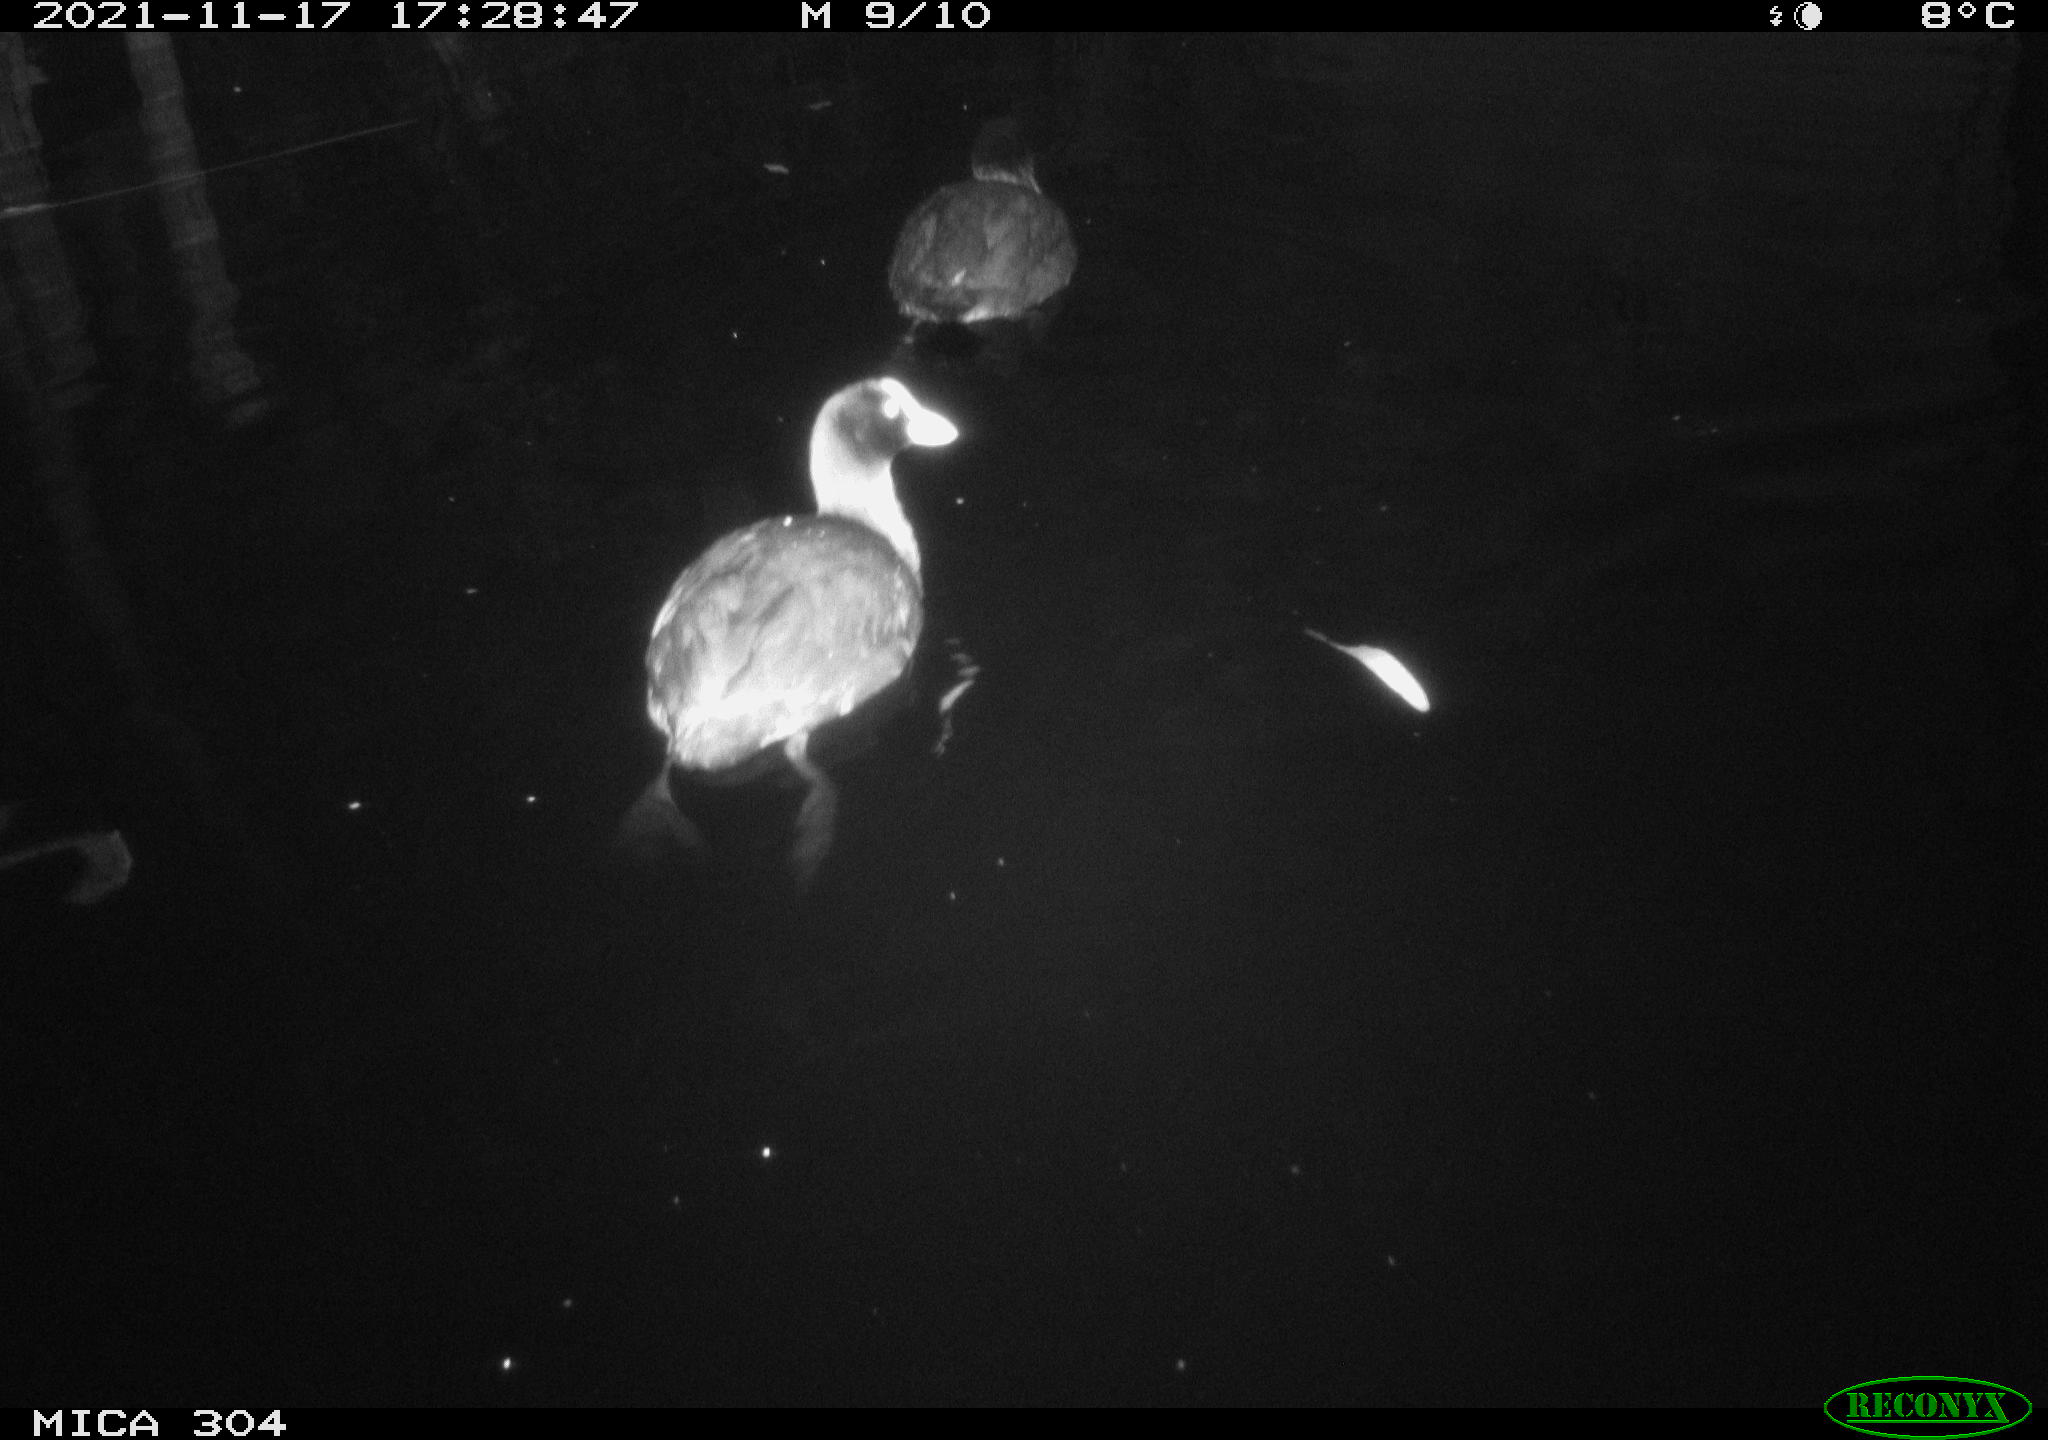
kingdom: Animalia
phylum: Chordata
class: Aves
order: Gruiformes
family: Rallidae
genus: Fulica
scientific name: Fulica atra
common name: Eurasian coot
